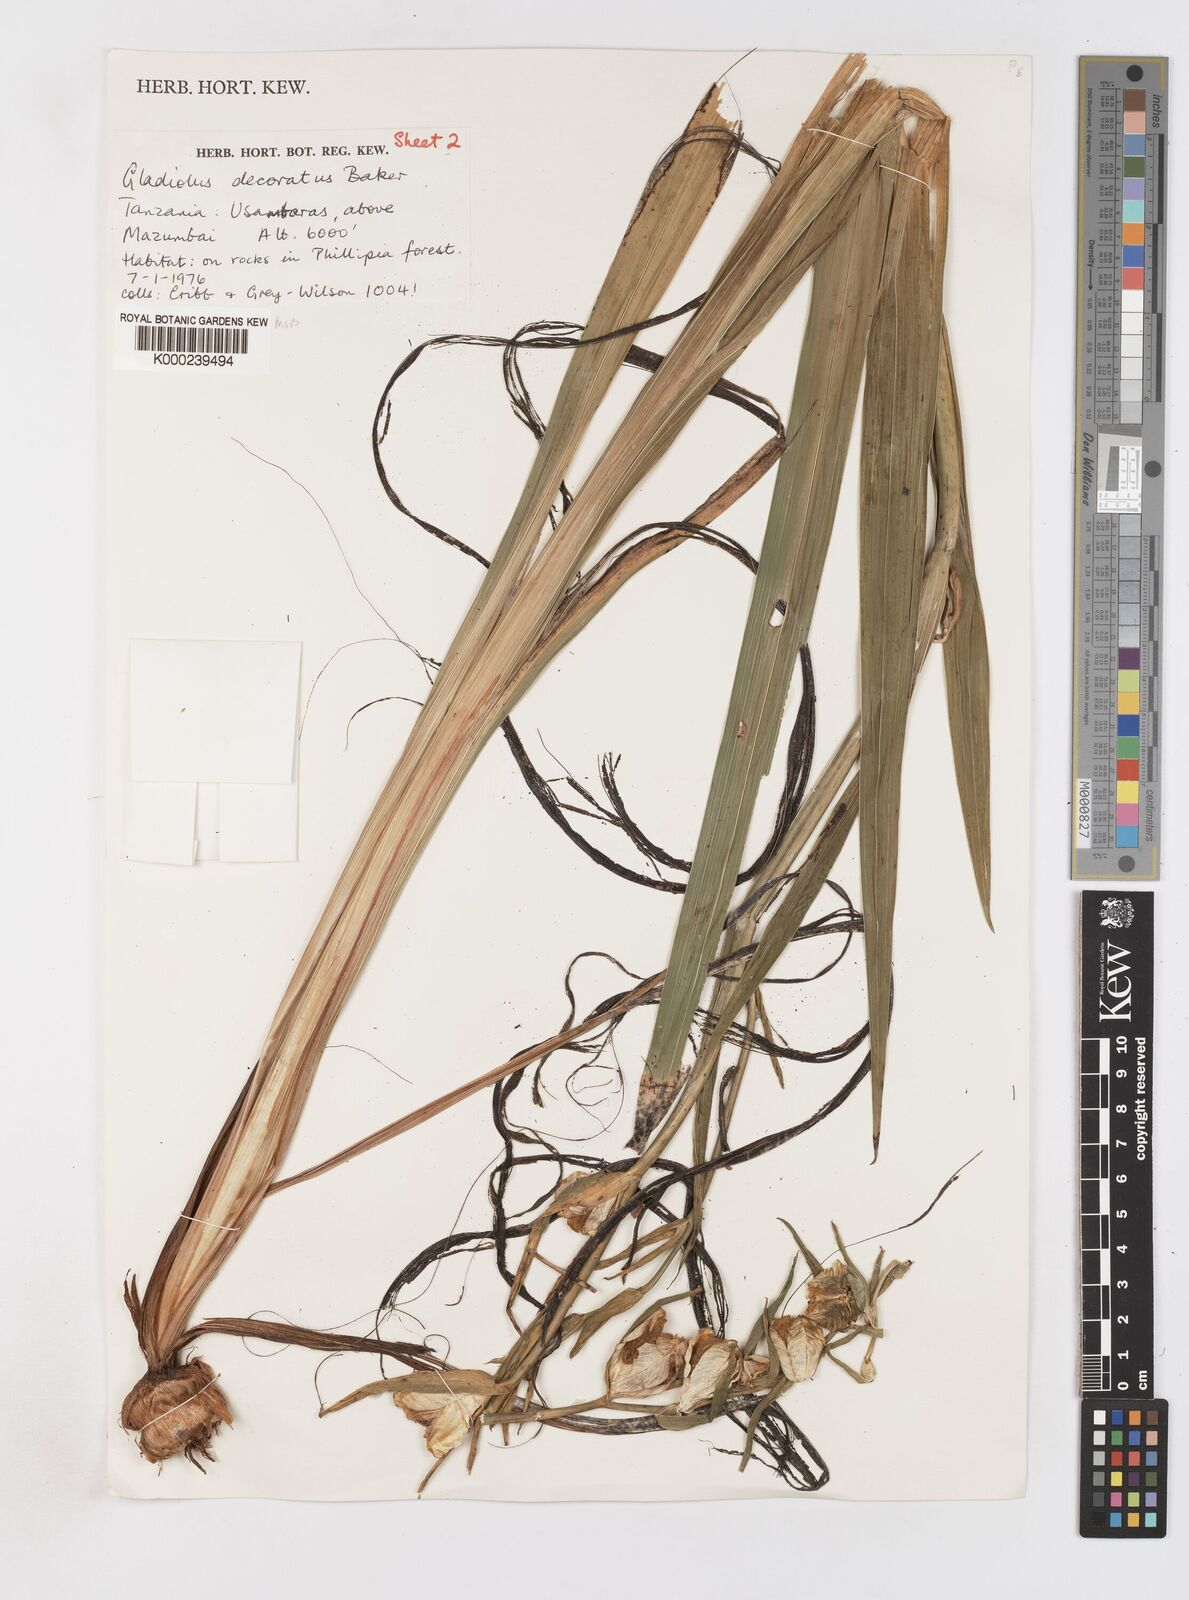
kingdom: Plantae
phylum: Tracheophyta
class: Liliopsida
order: Asparagales
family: Iridaceae
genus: Gladiolus
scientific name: Gladiolus rupicola
